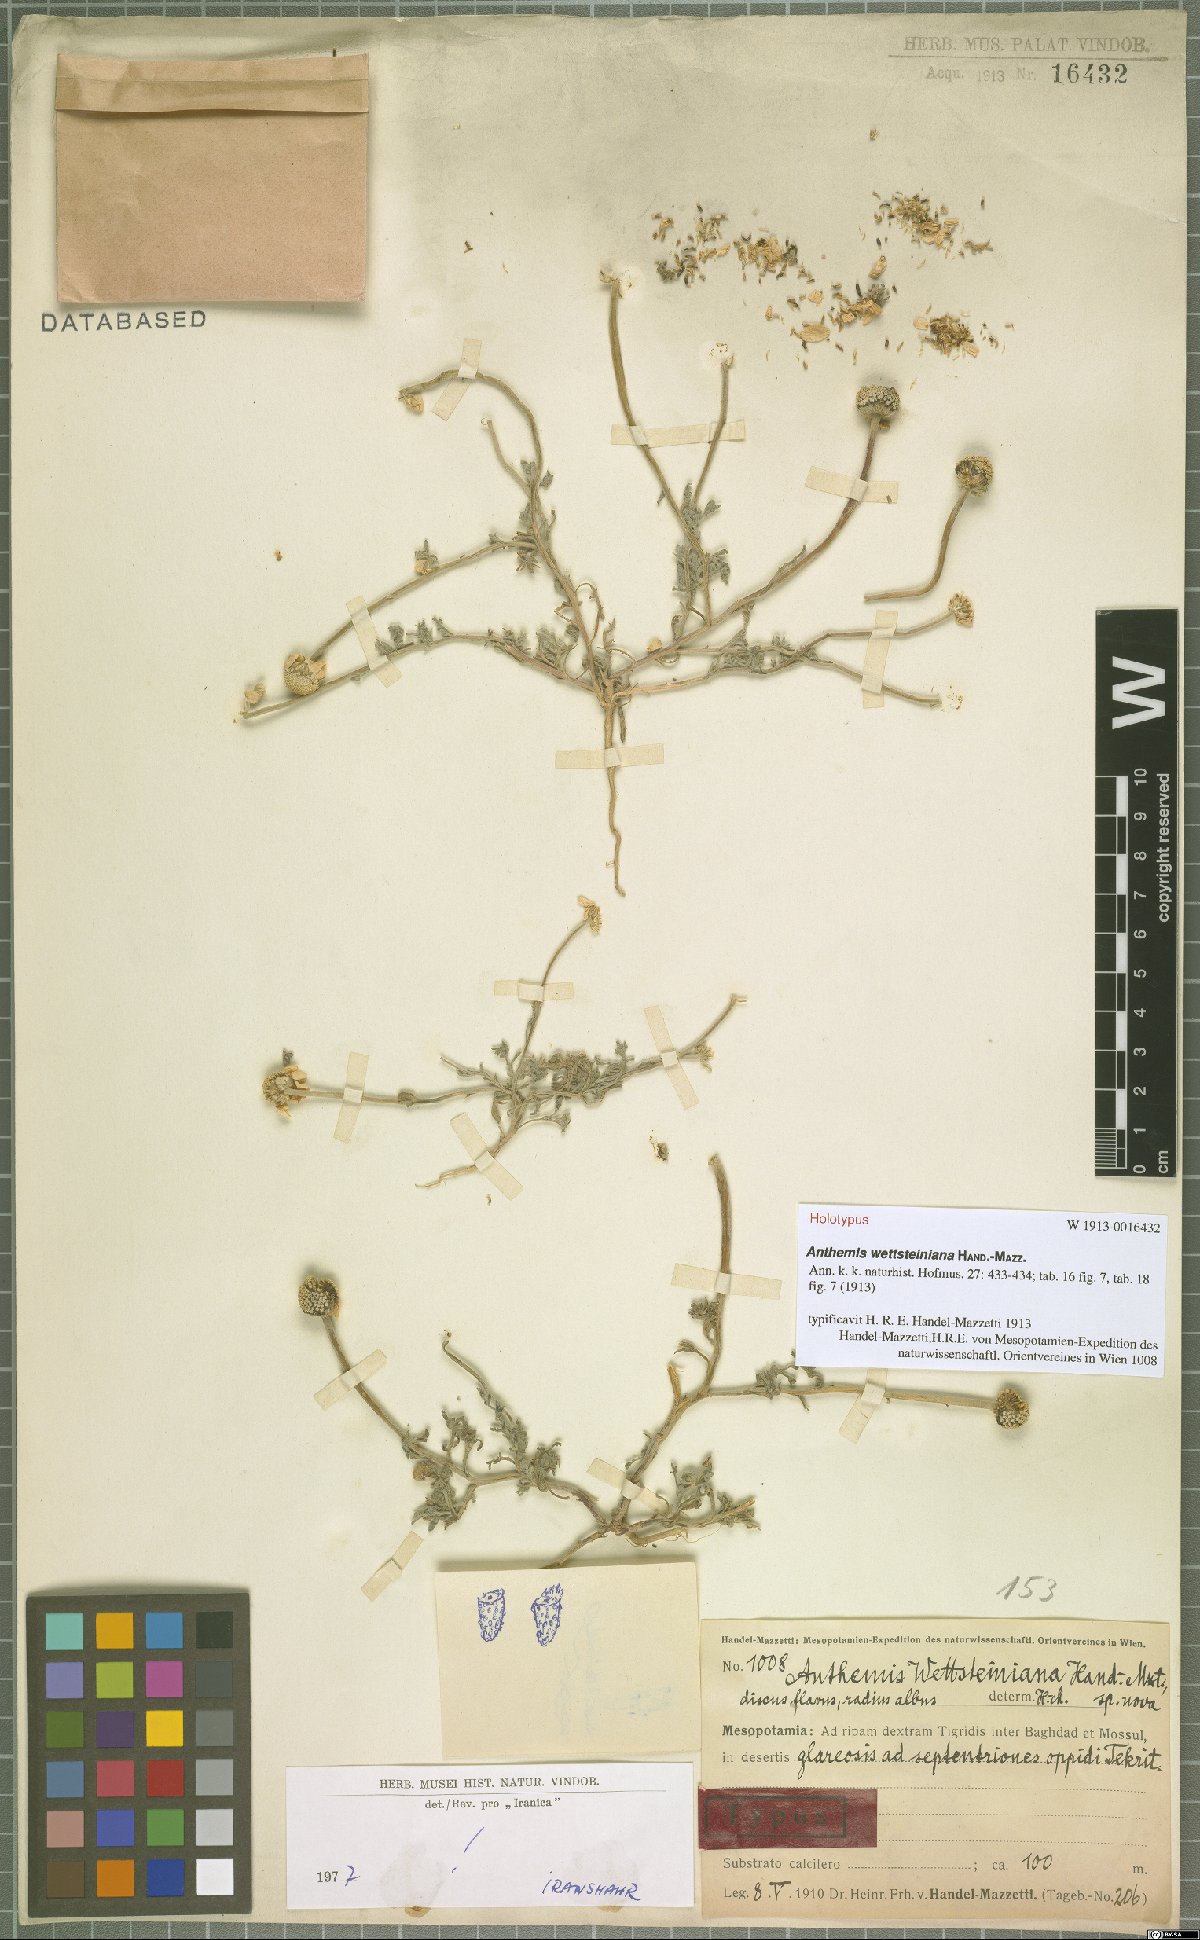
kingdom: Plantae
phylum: Tracheophyta
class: Magnoliopsida
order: Asterales
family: Asteraceae
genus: Anthemis
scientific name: Anthemis wettsteiniana
